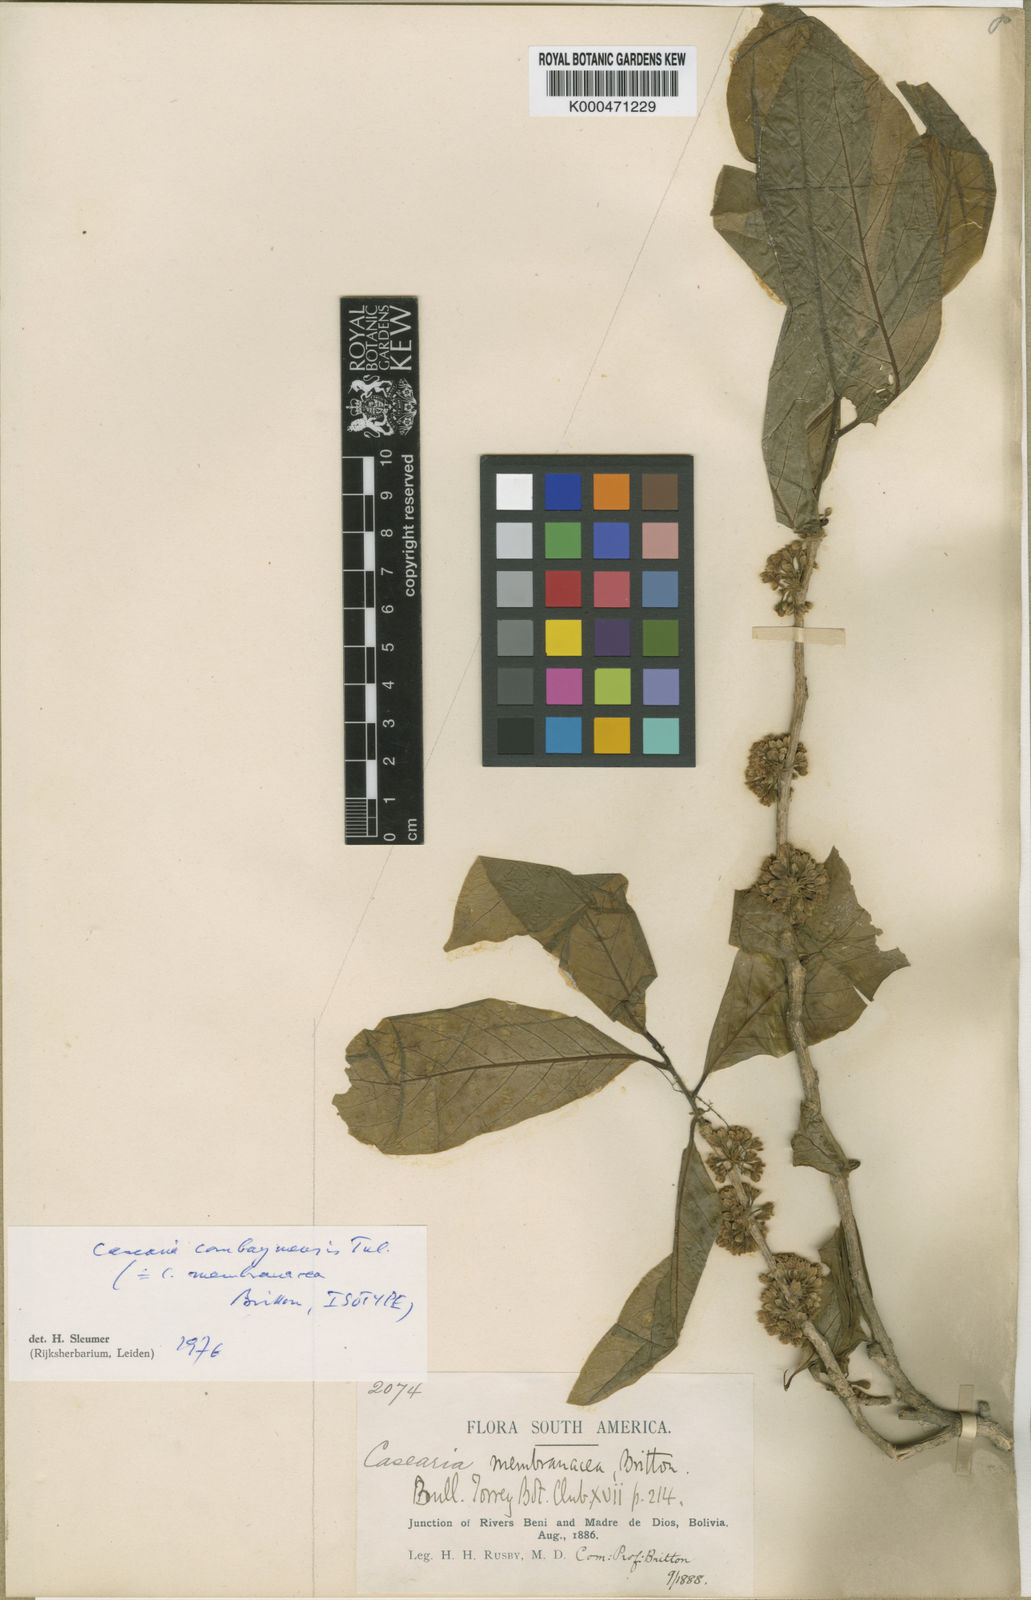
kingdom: Plantae
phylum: Tracheophyta
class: Magnoliopsida
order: Malpighiales
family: Salicaceae
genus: Casearia
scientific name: Casearia combaymensis
